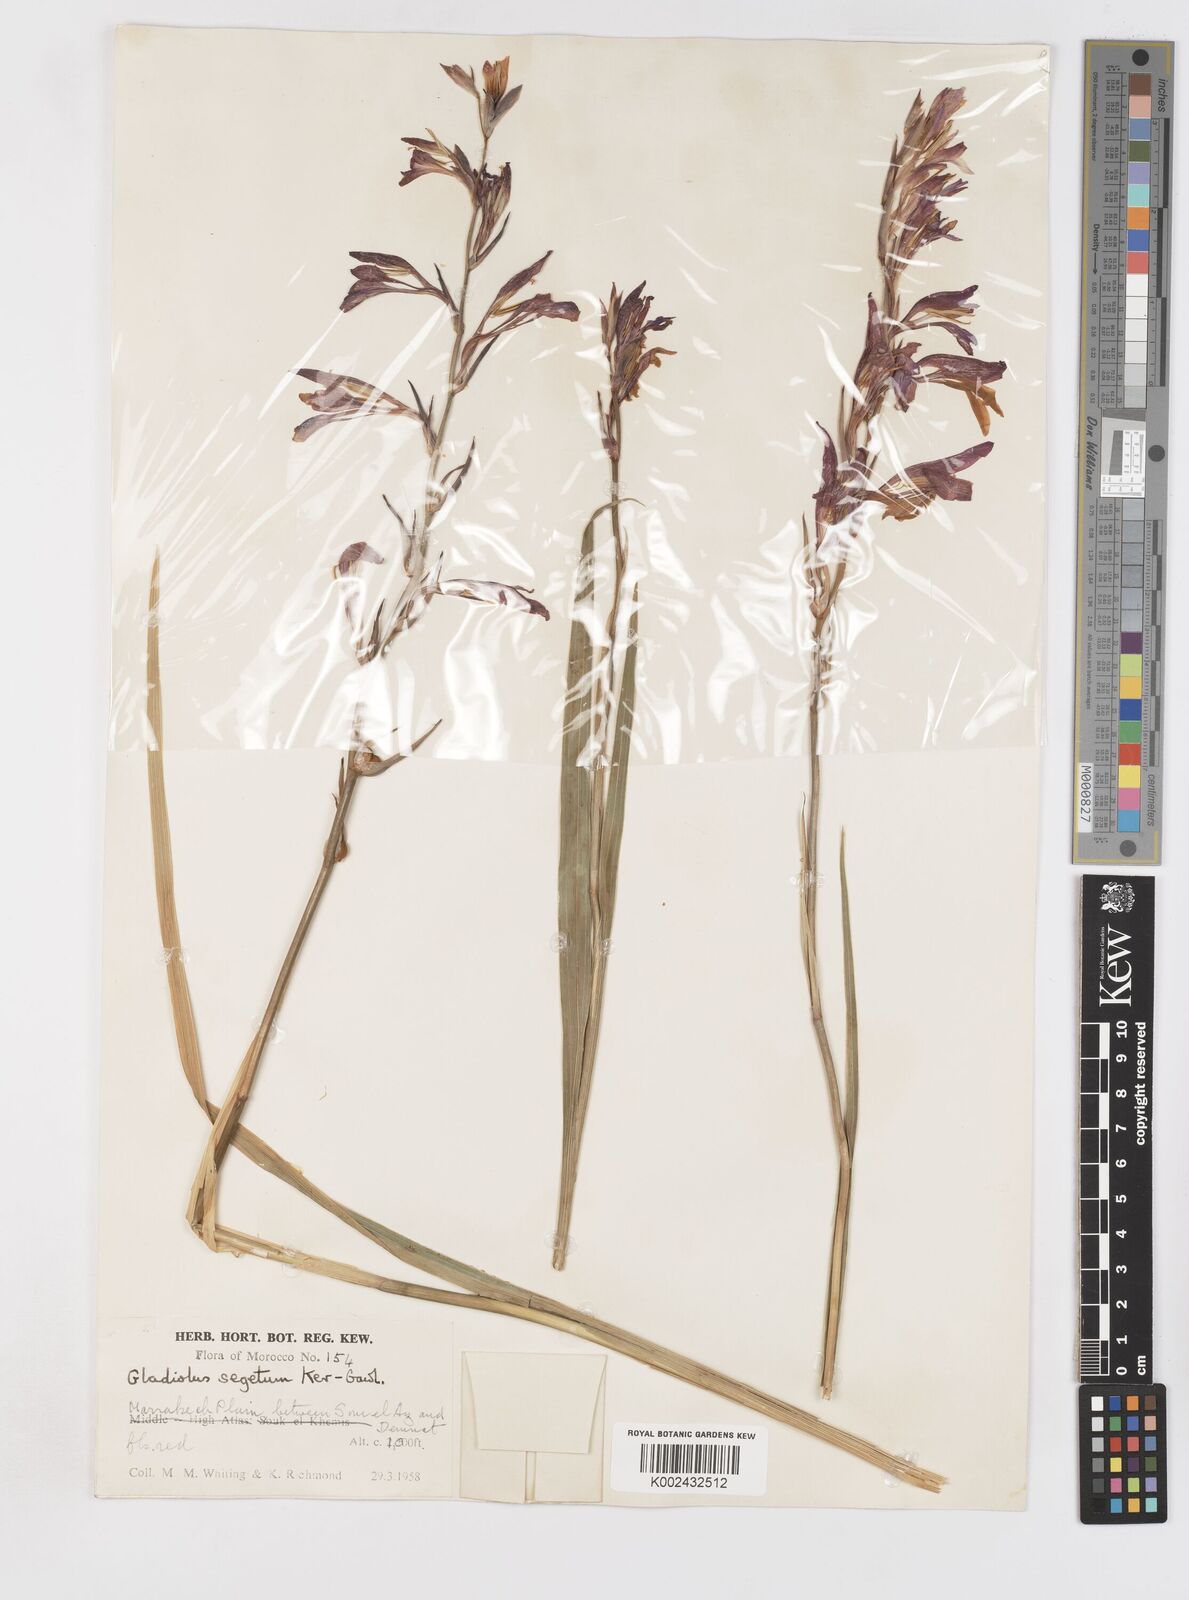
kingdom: Plantae
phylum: Tracheophyta
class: Liliopsida
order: Asparagales
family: Iridaceae
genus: Gladiolus
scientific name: Gladiolus italicus
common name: Field gladiolus
